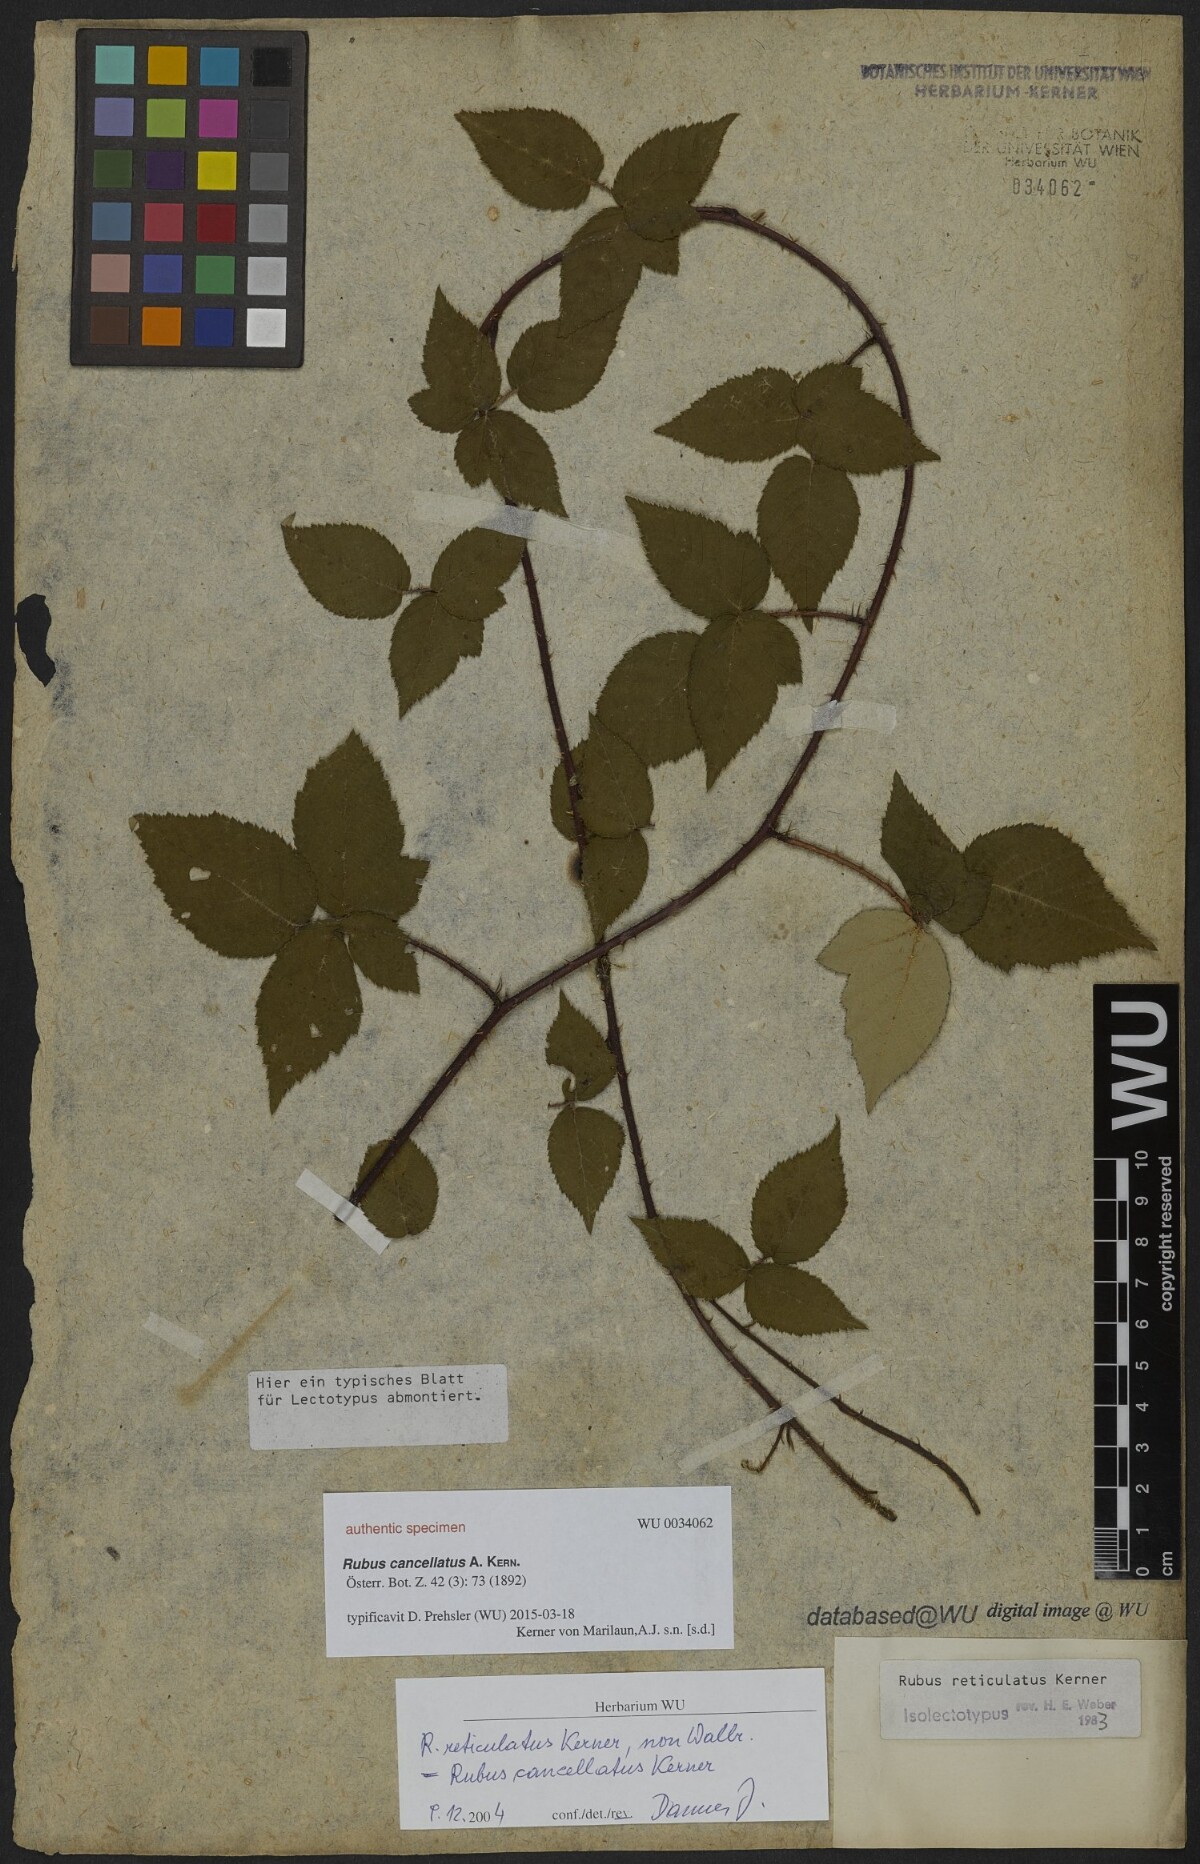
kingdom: Plantae
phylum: Tracheophyta
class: Magnoliopsida
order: Rosales
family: Rosaceae
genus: Rubus
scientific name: Rubus reticulatus
